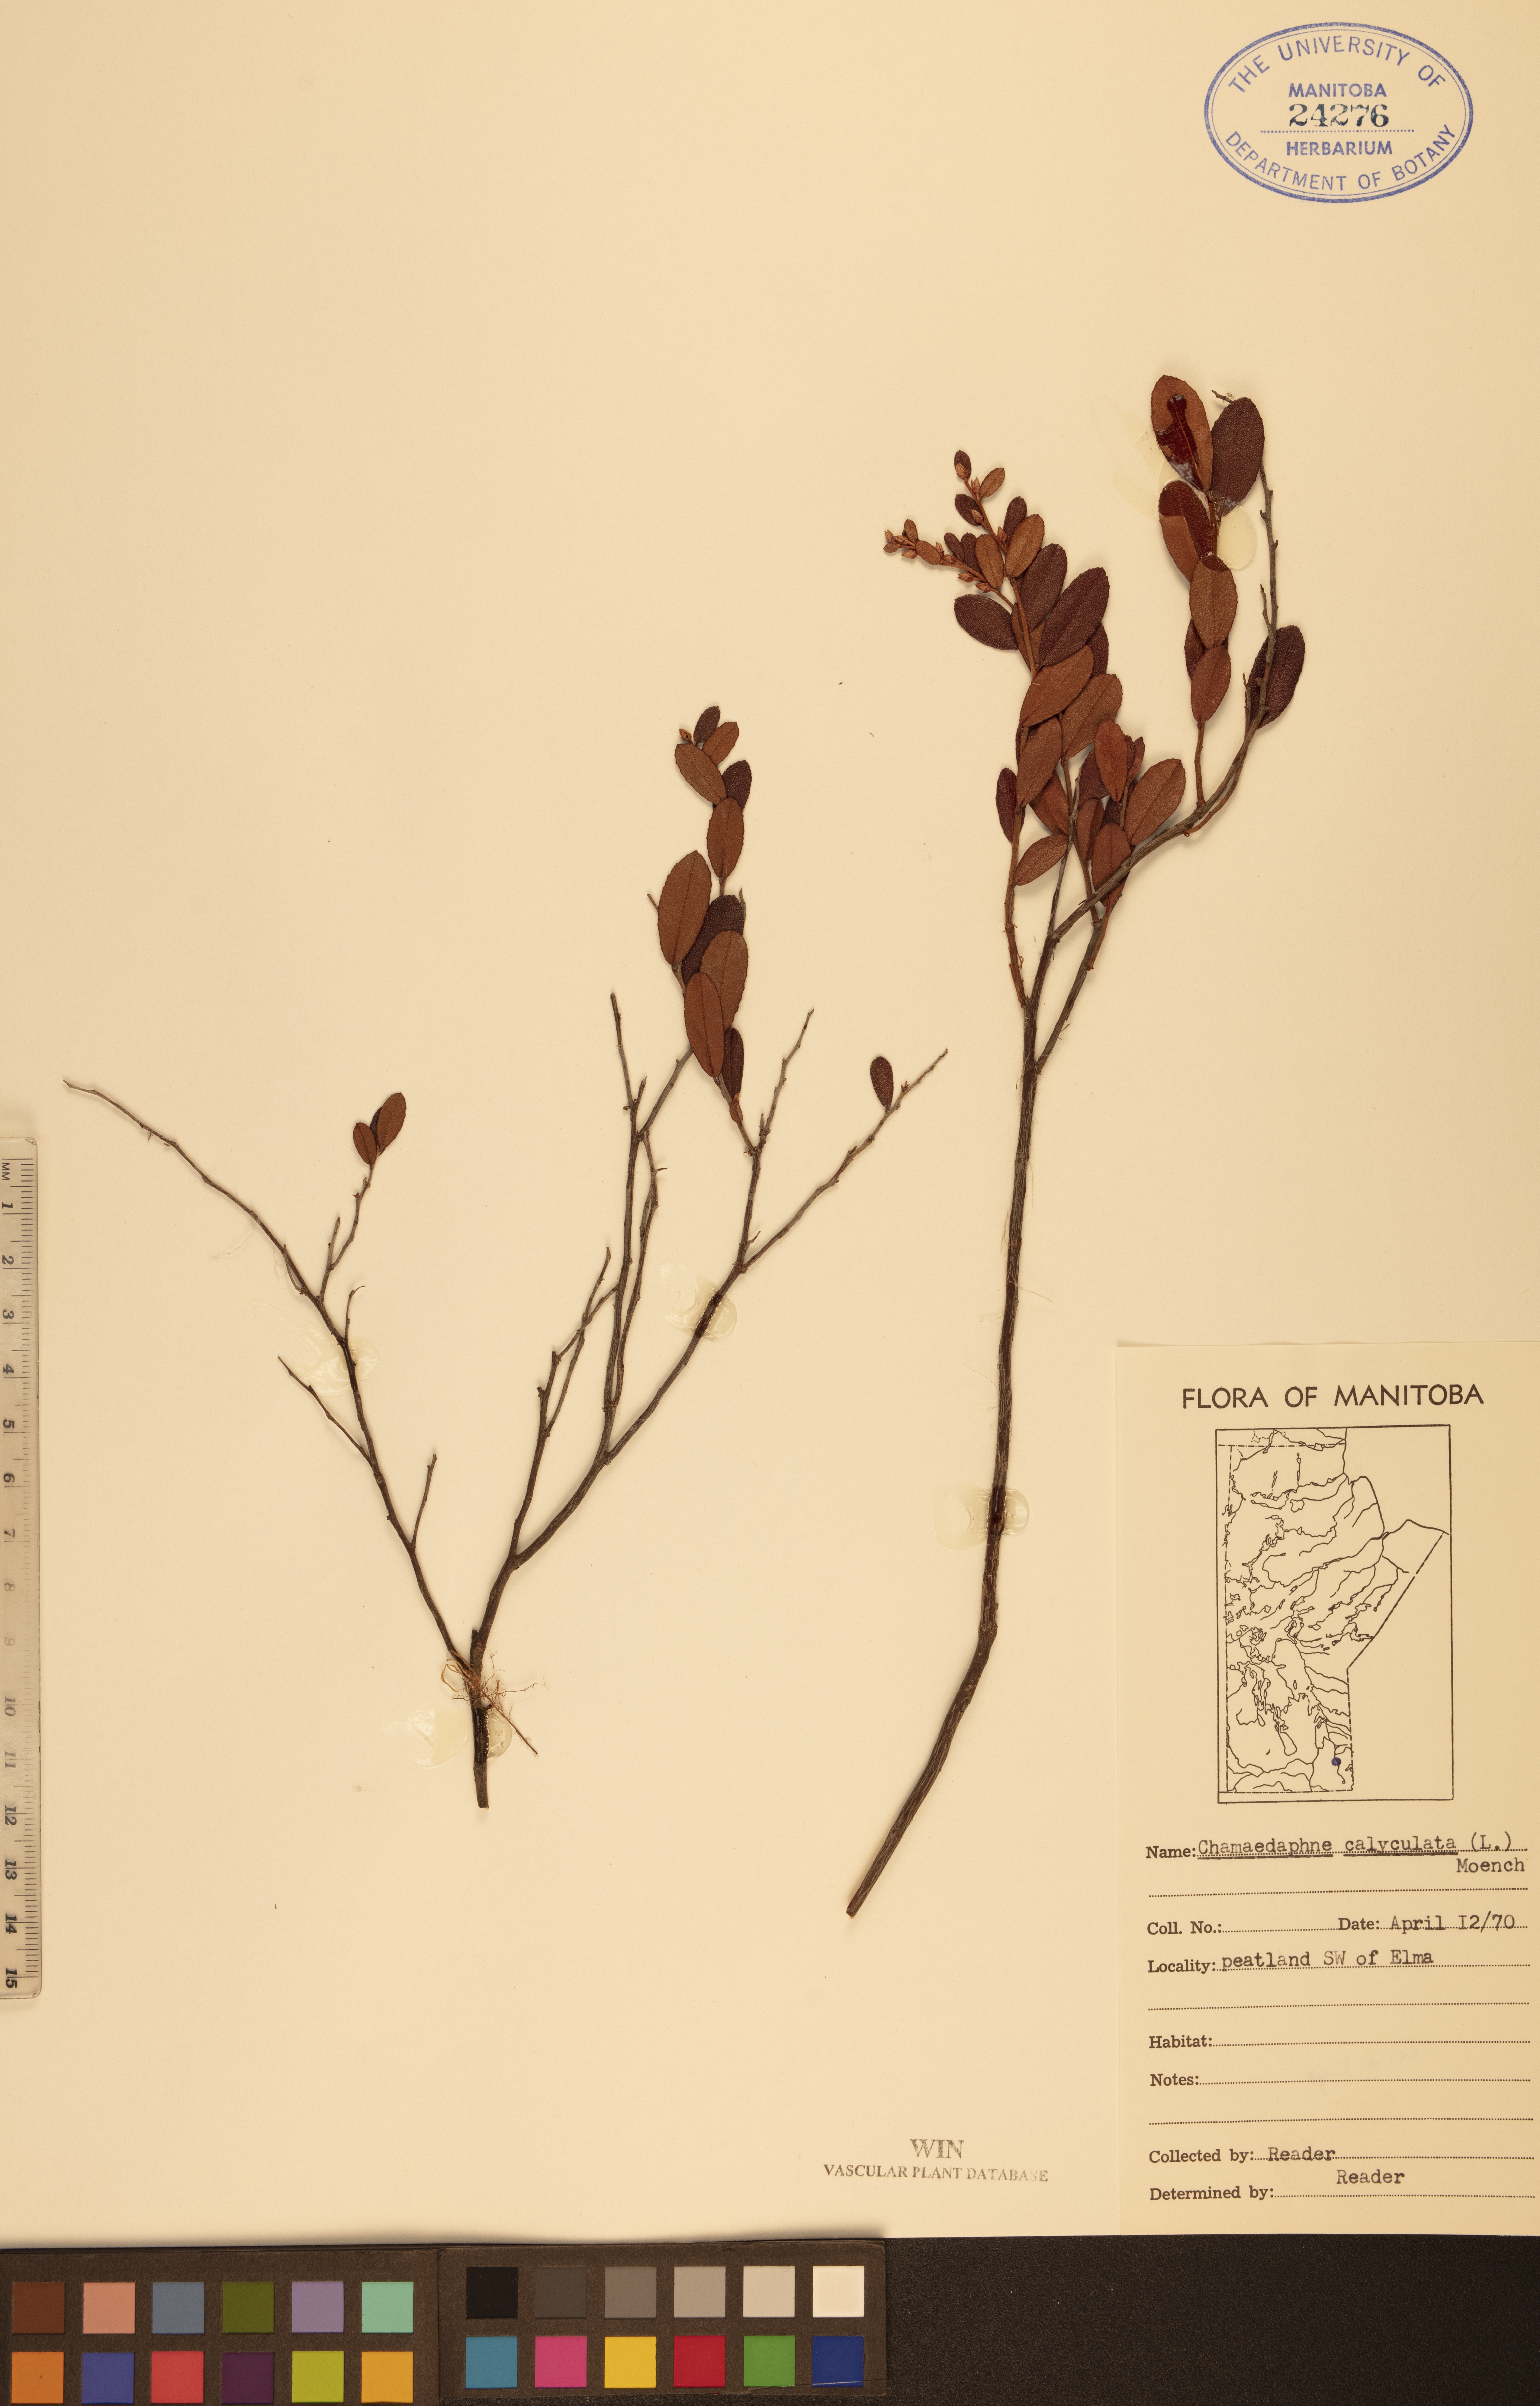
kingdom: Plantae
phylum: Tracheophyta
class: Magnoliopsida
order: Ericales
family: Ericaceae
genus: Chamaedaphne
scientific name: Chamaedaphne calyculata
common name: Leatherleaf
